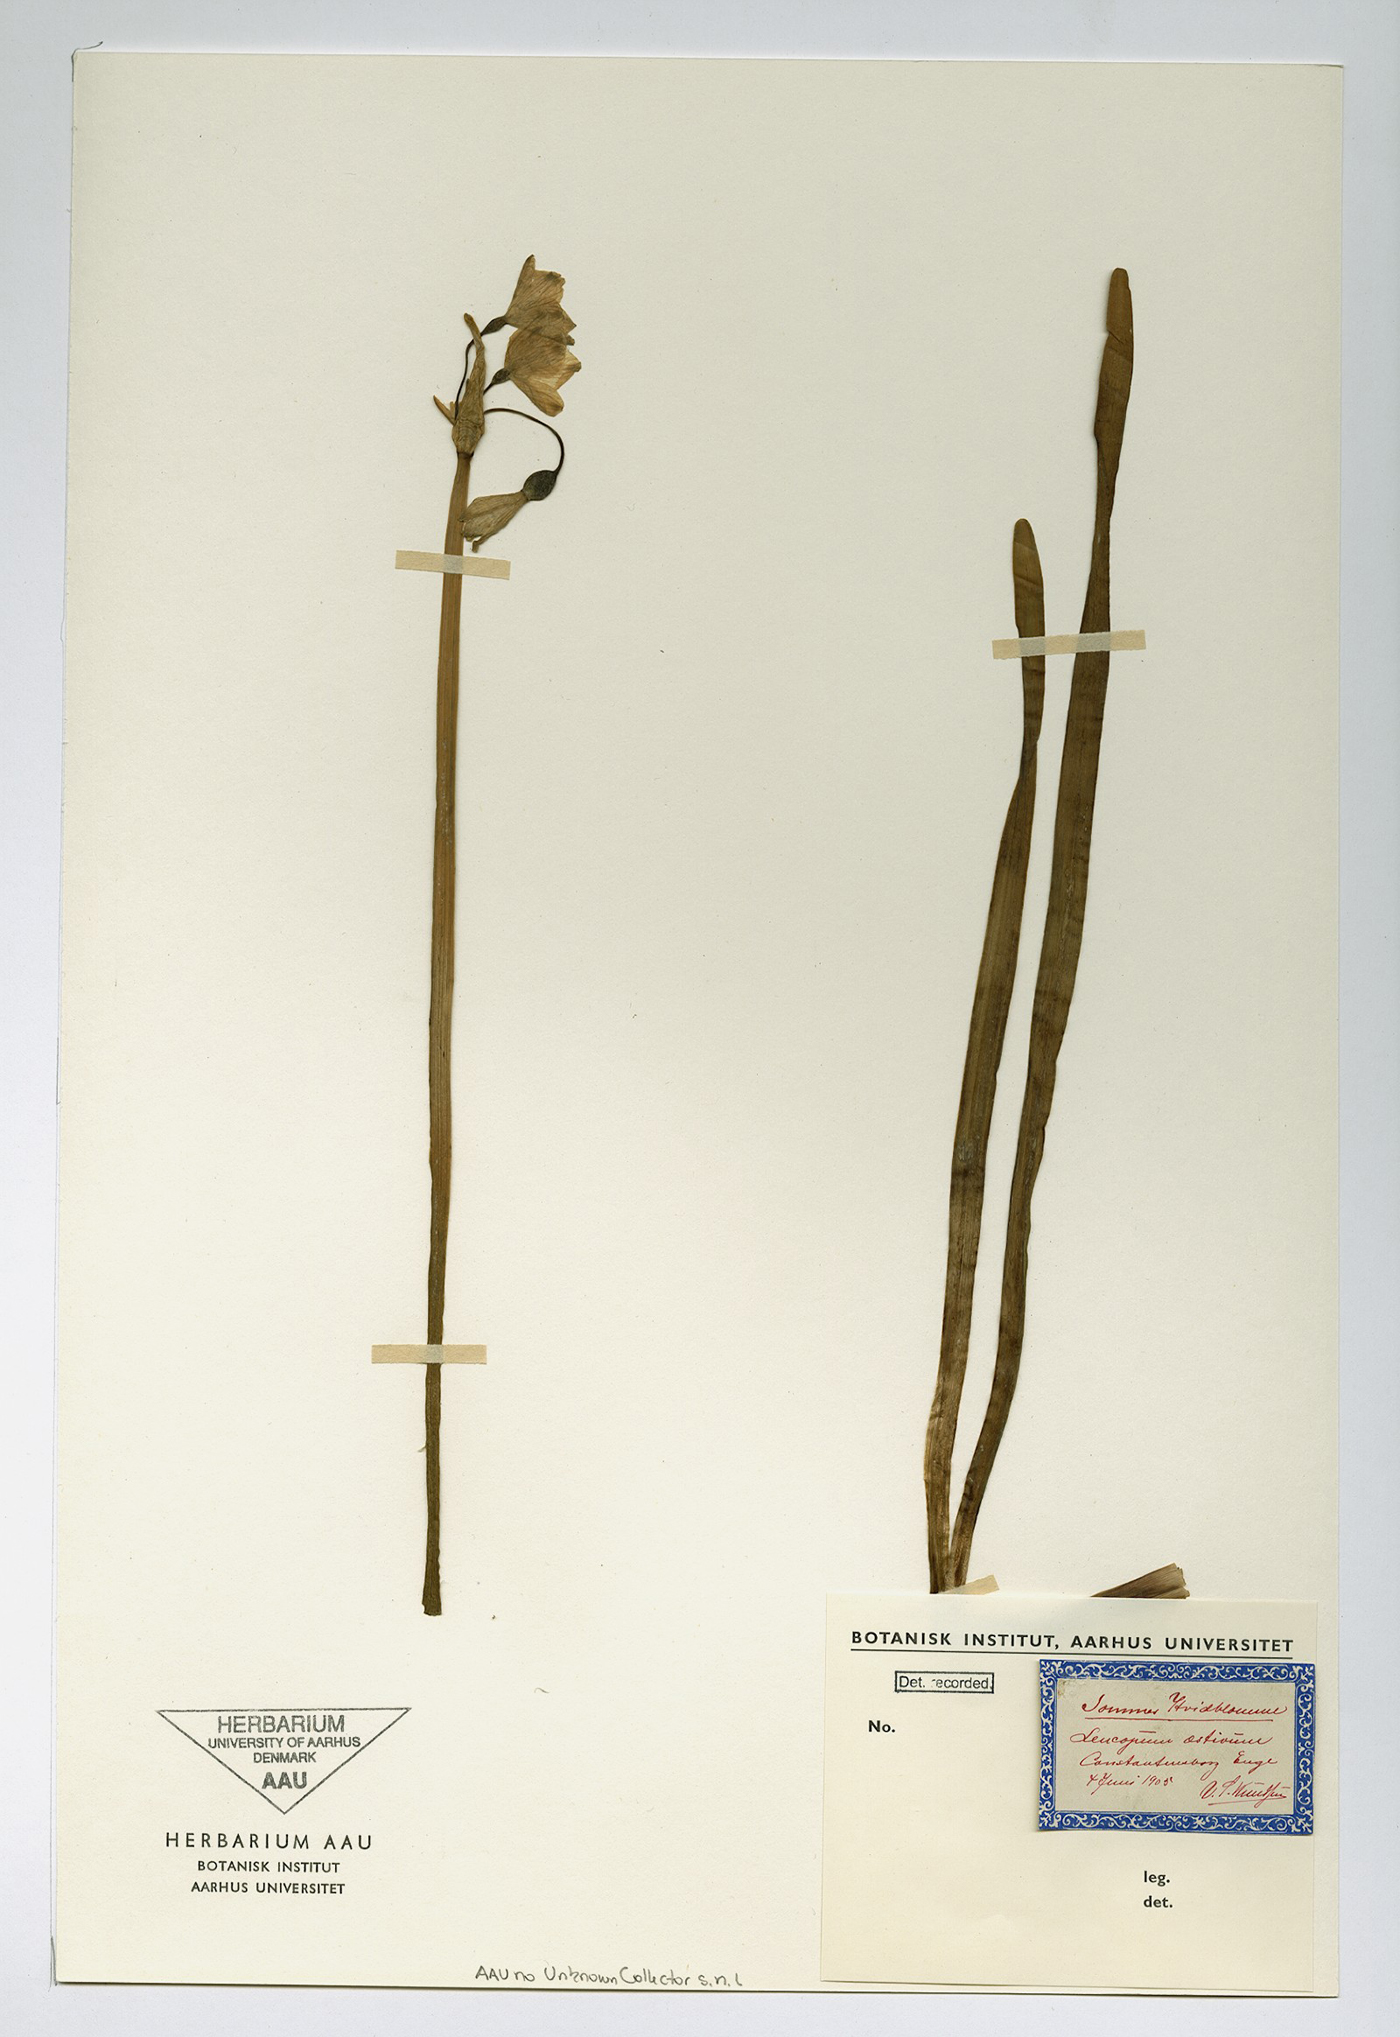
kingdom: Plantae
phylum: Tracheophyta
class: Liliopsida
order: Asparagales
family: Amaryllidaceae
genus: Leucojum
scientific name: Leucojum aestivum
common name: Summer snowflake
